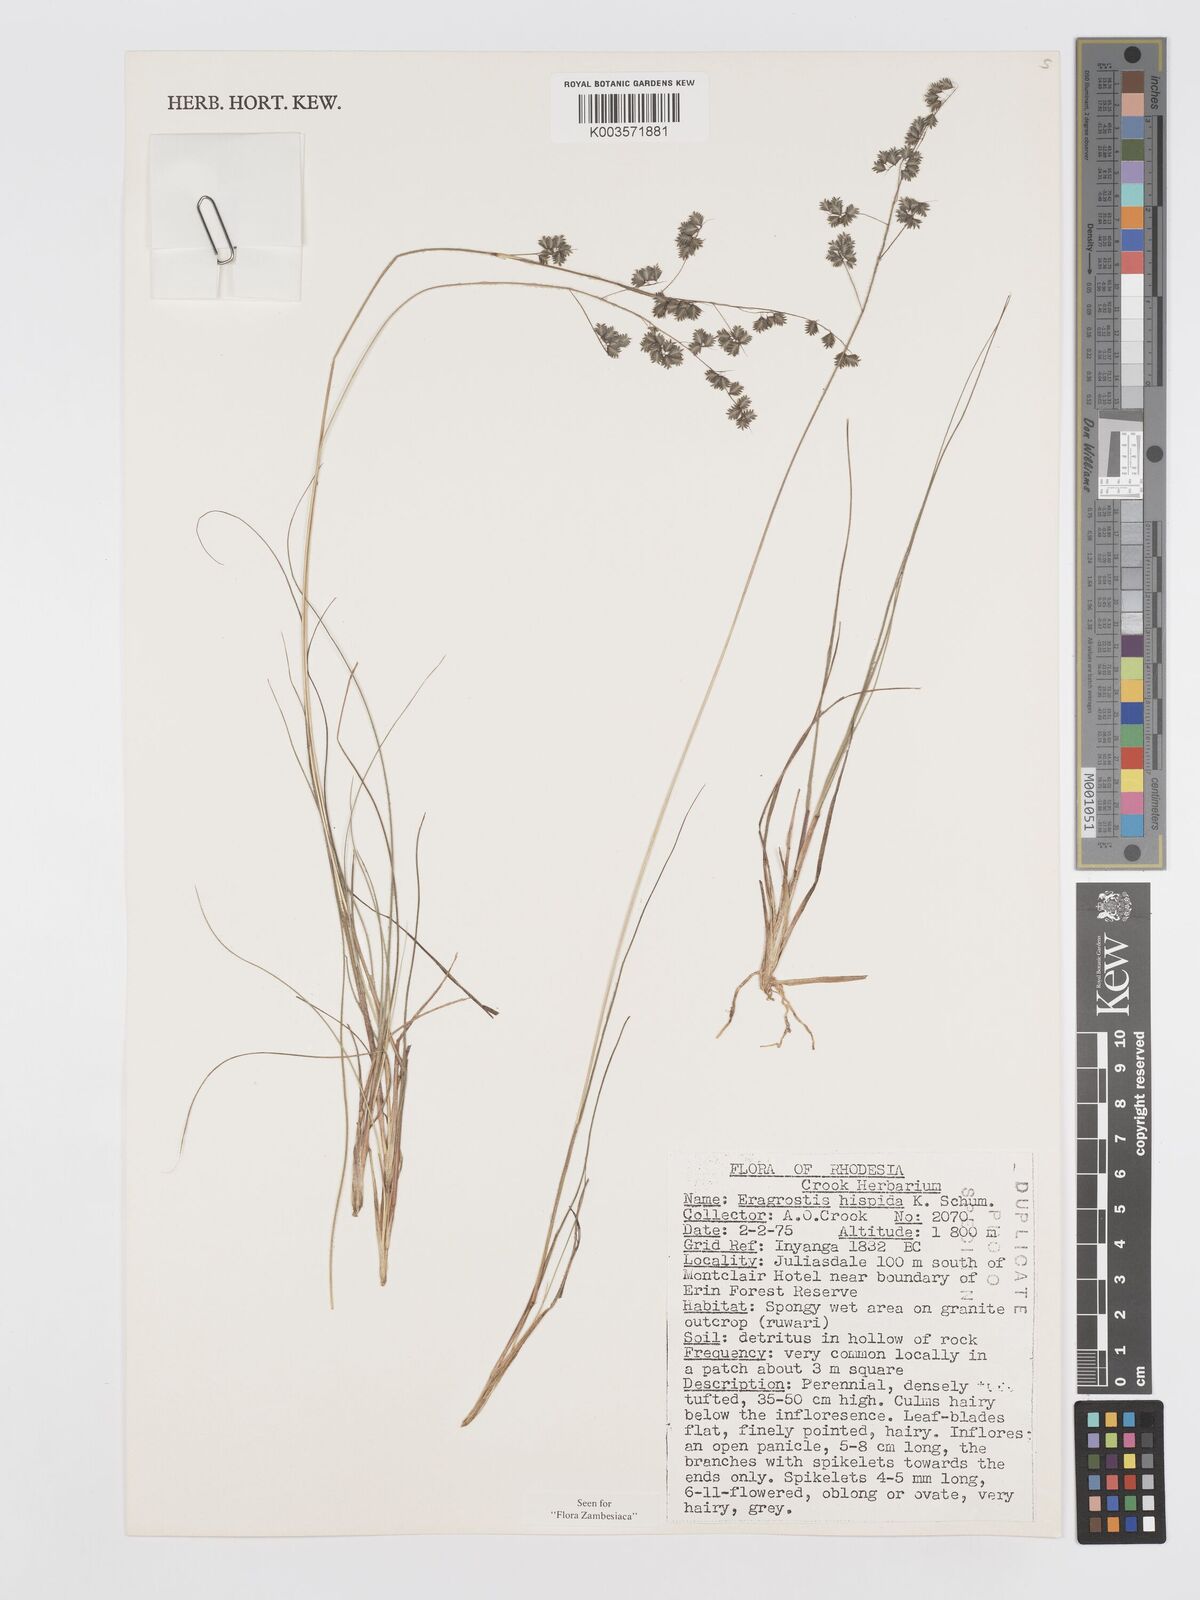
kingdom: Plantae
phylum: Tracheophyta
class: Liliopsida
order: Poales
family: Poaceae
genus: Eragrostis
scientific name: Eragrostis hispida
